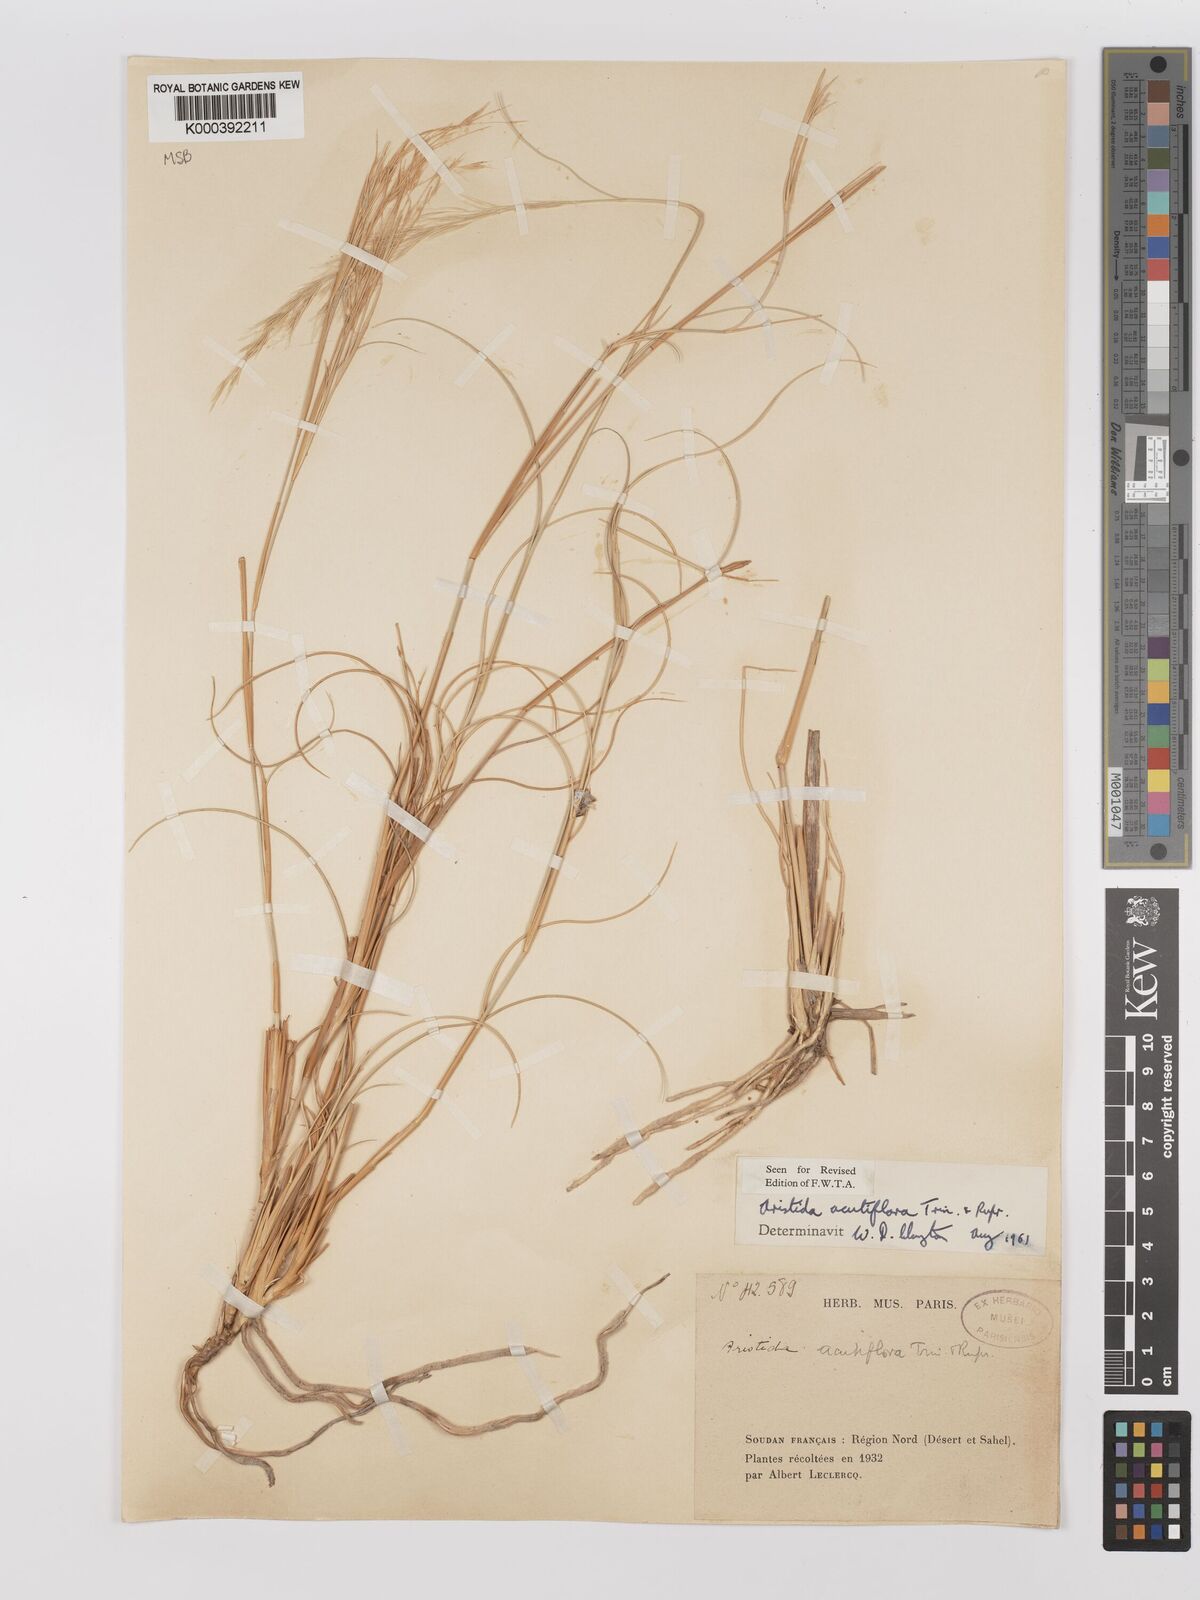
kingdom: Plantae
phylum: Tracheophyta
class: Liliopsida
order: Poales
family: Poaceae
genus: Stipagrostis
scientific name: Stipagrostis acutiflora
